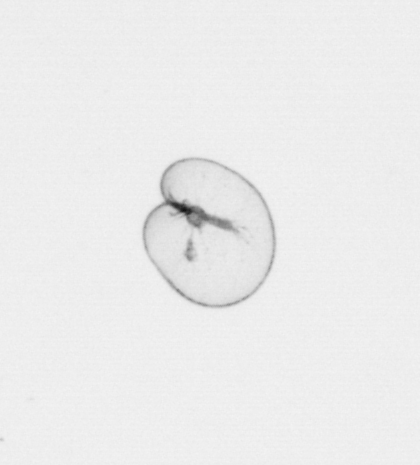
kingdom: Chromista
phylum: Myzozoa
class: Dinophyceae
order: Noctilucales
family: Noctilucaceae
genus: Noctiluca
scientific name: Noctiluca scintillans
